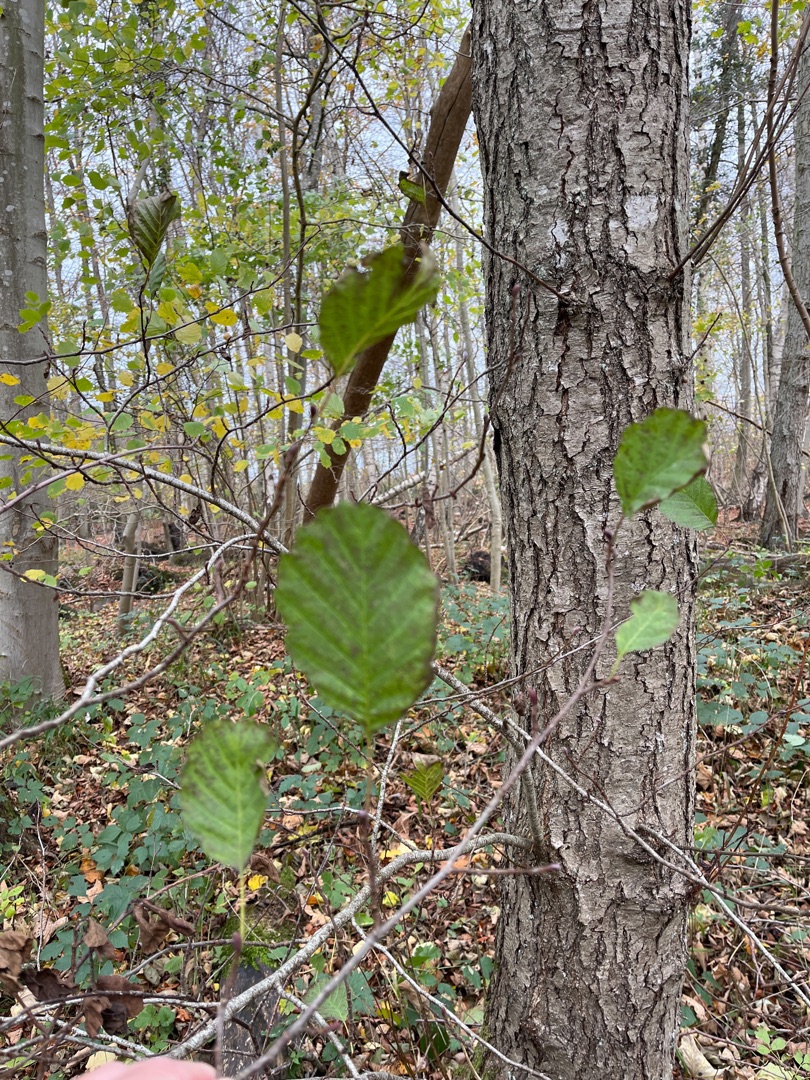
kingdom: Plantae
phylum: Tracheophyta
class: Magnoliopsida
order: Fagales
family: Betulaceae
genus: Alnus
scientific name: Alnus glutinosa
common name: Rød-el
